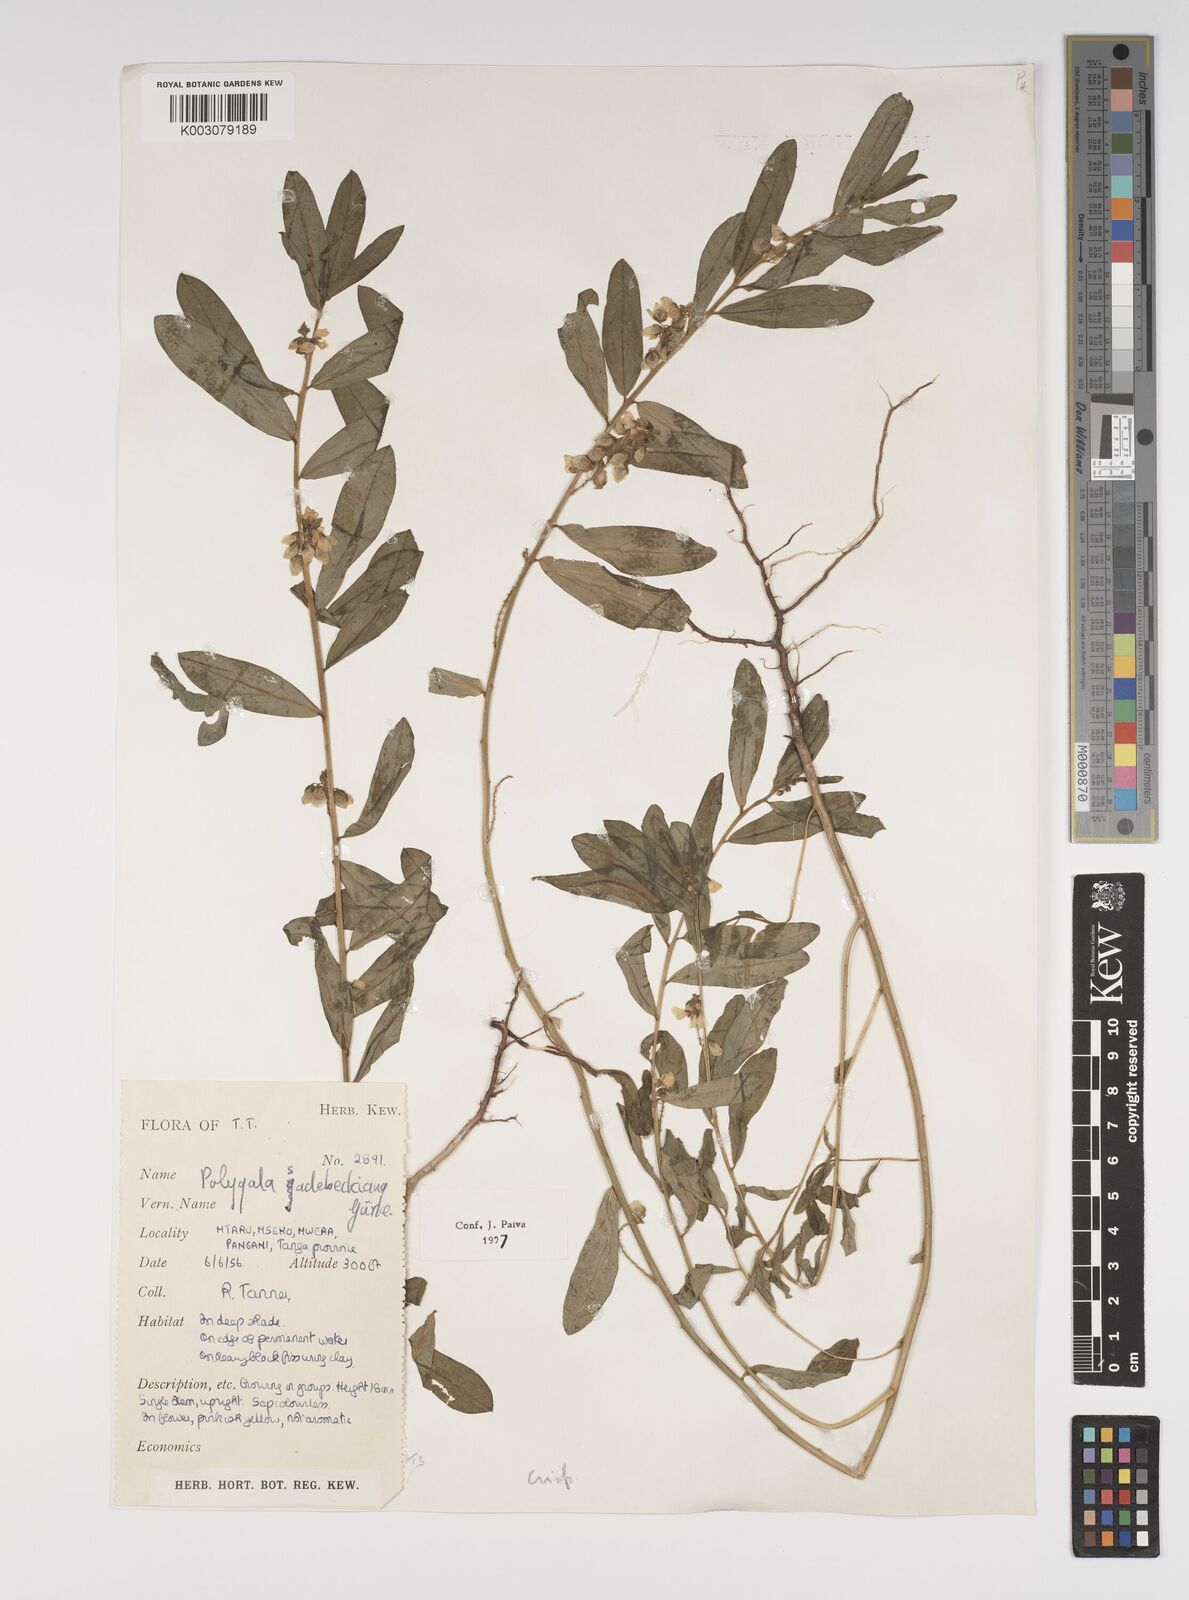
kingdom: Plantae
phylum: Tracheophyta
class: Magnoliopsida
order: Fabales
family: Polygalaceae
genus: Polygala
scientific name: Polygala sadebeckiana
